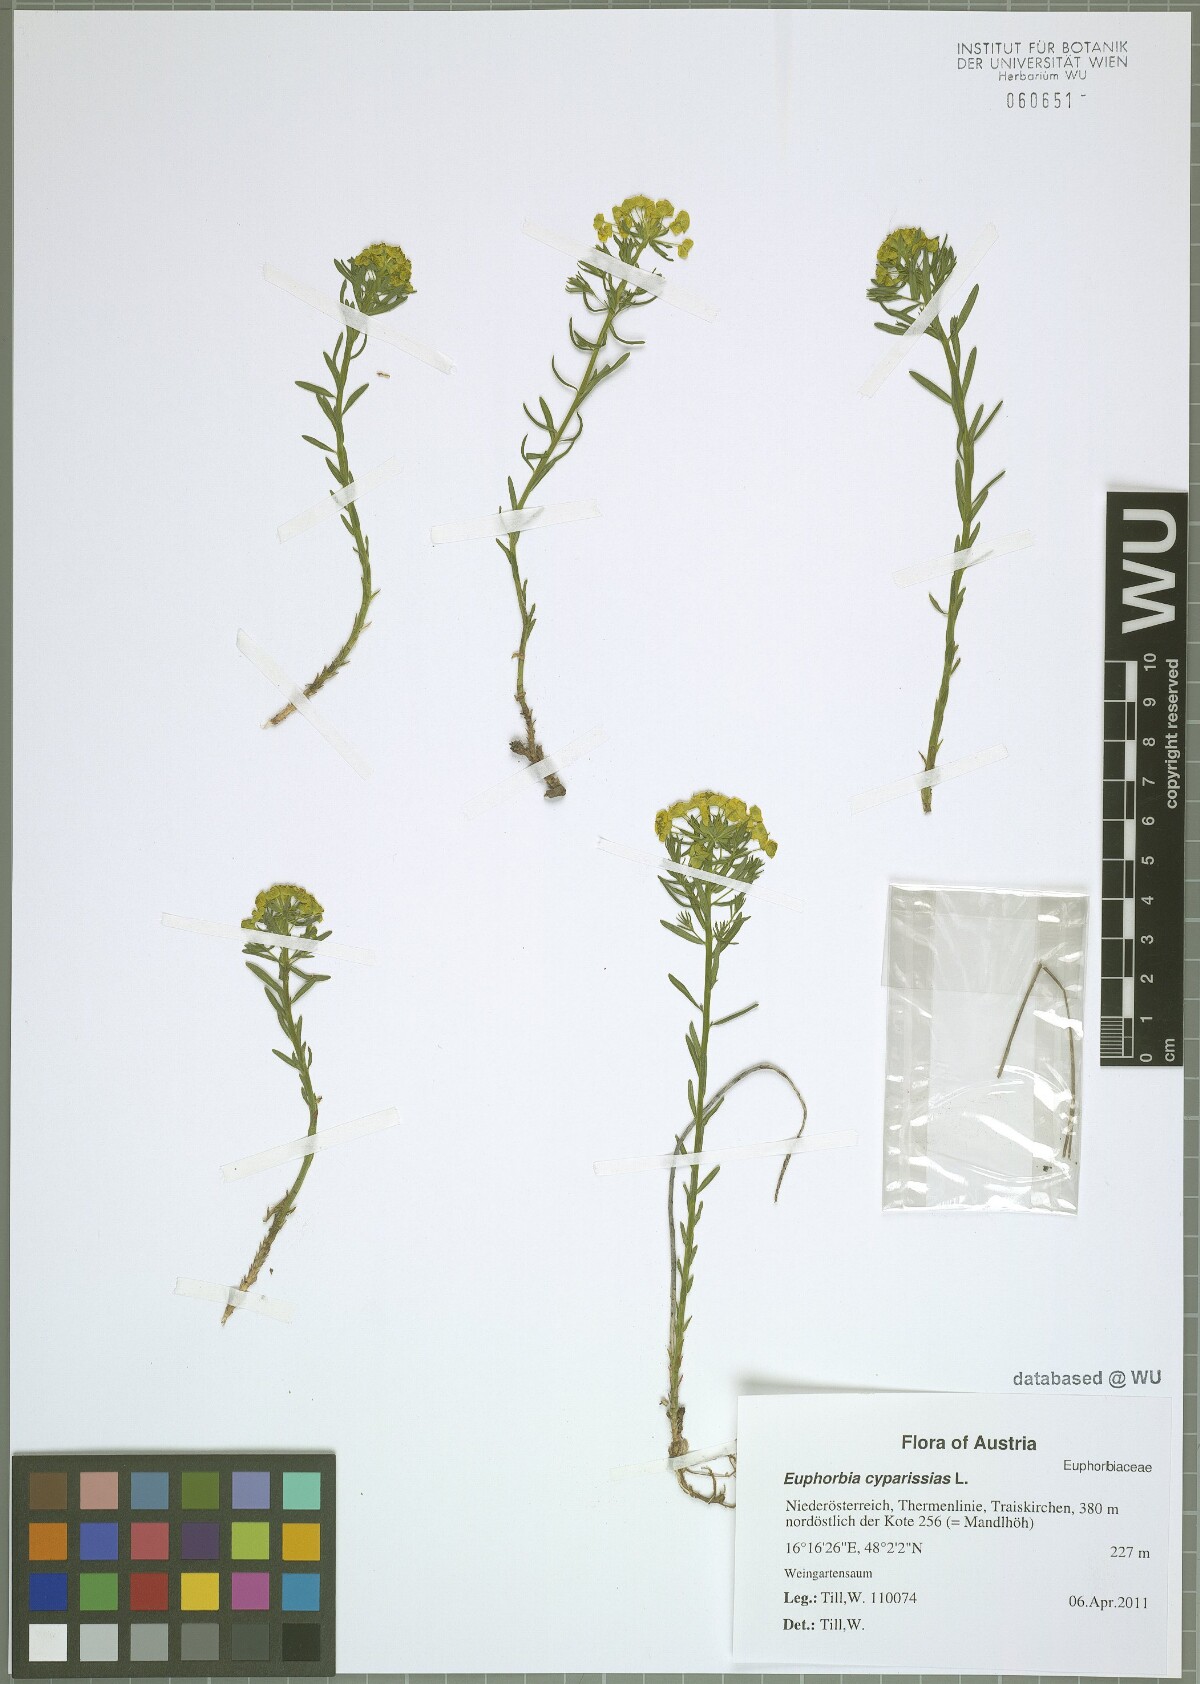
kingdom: Plantae
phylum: Tracheophyta
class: Magnoliopsida
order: Malpighiales
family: Euphorbiaceae
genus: Euphorbia
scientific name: Euphorbia cyparissias
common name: Cypress spurge
